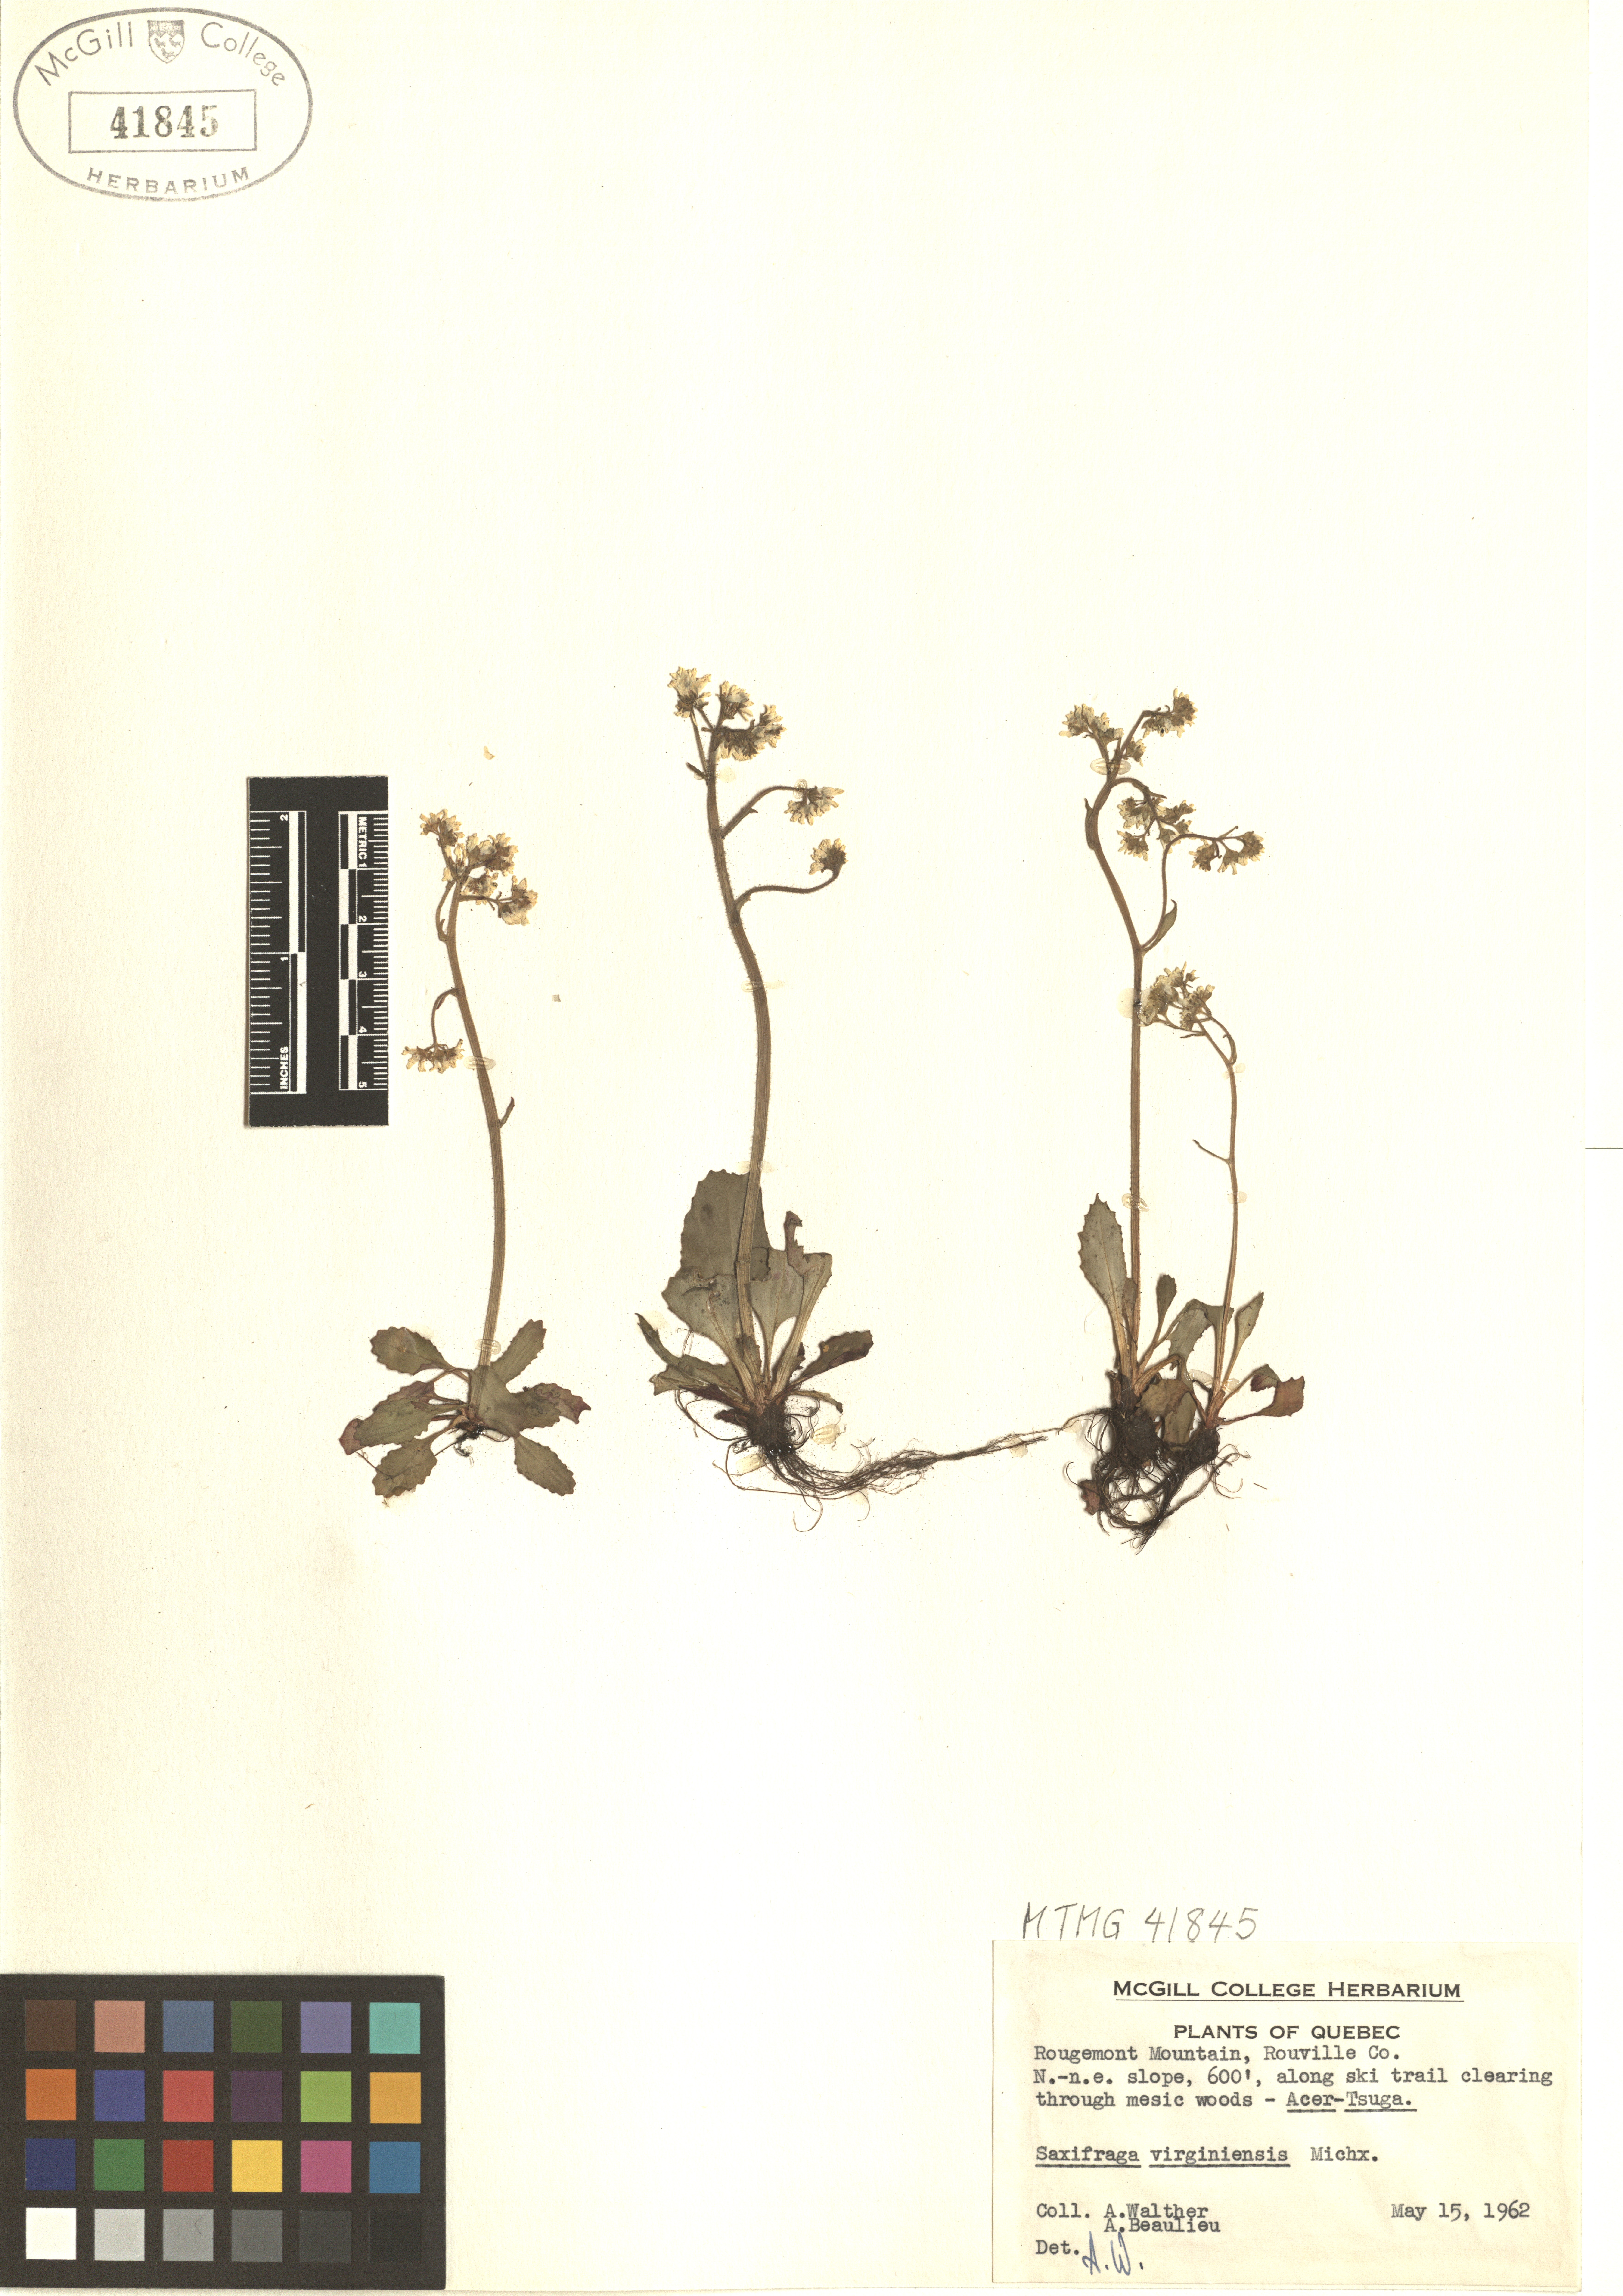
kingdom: Plantae
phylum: Tracheophyta
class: Magnoliopsida
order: Saxifragales
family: Saxifragaceae
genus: Micranthes
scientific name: Micranthes virginiensis
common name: Early saxifrage
